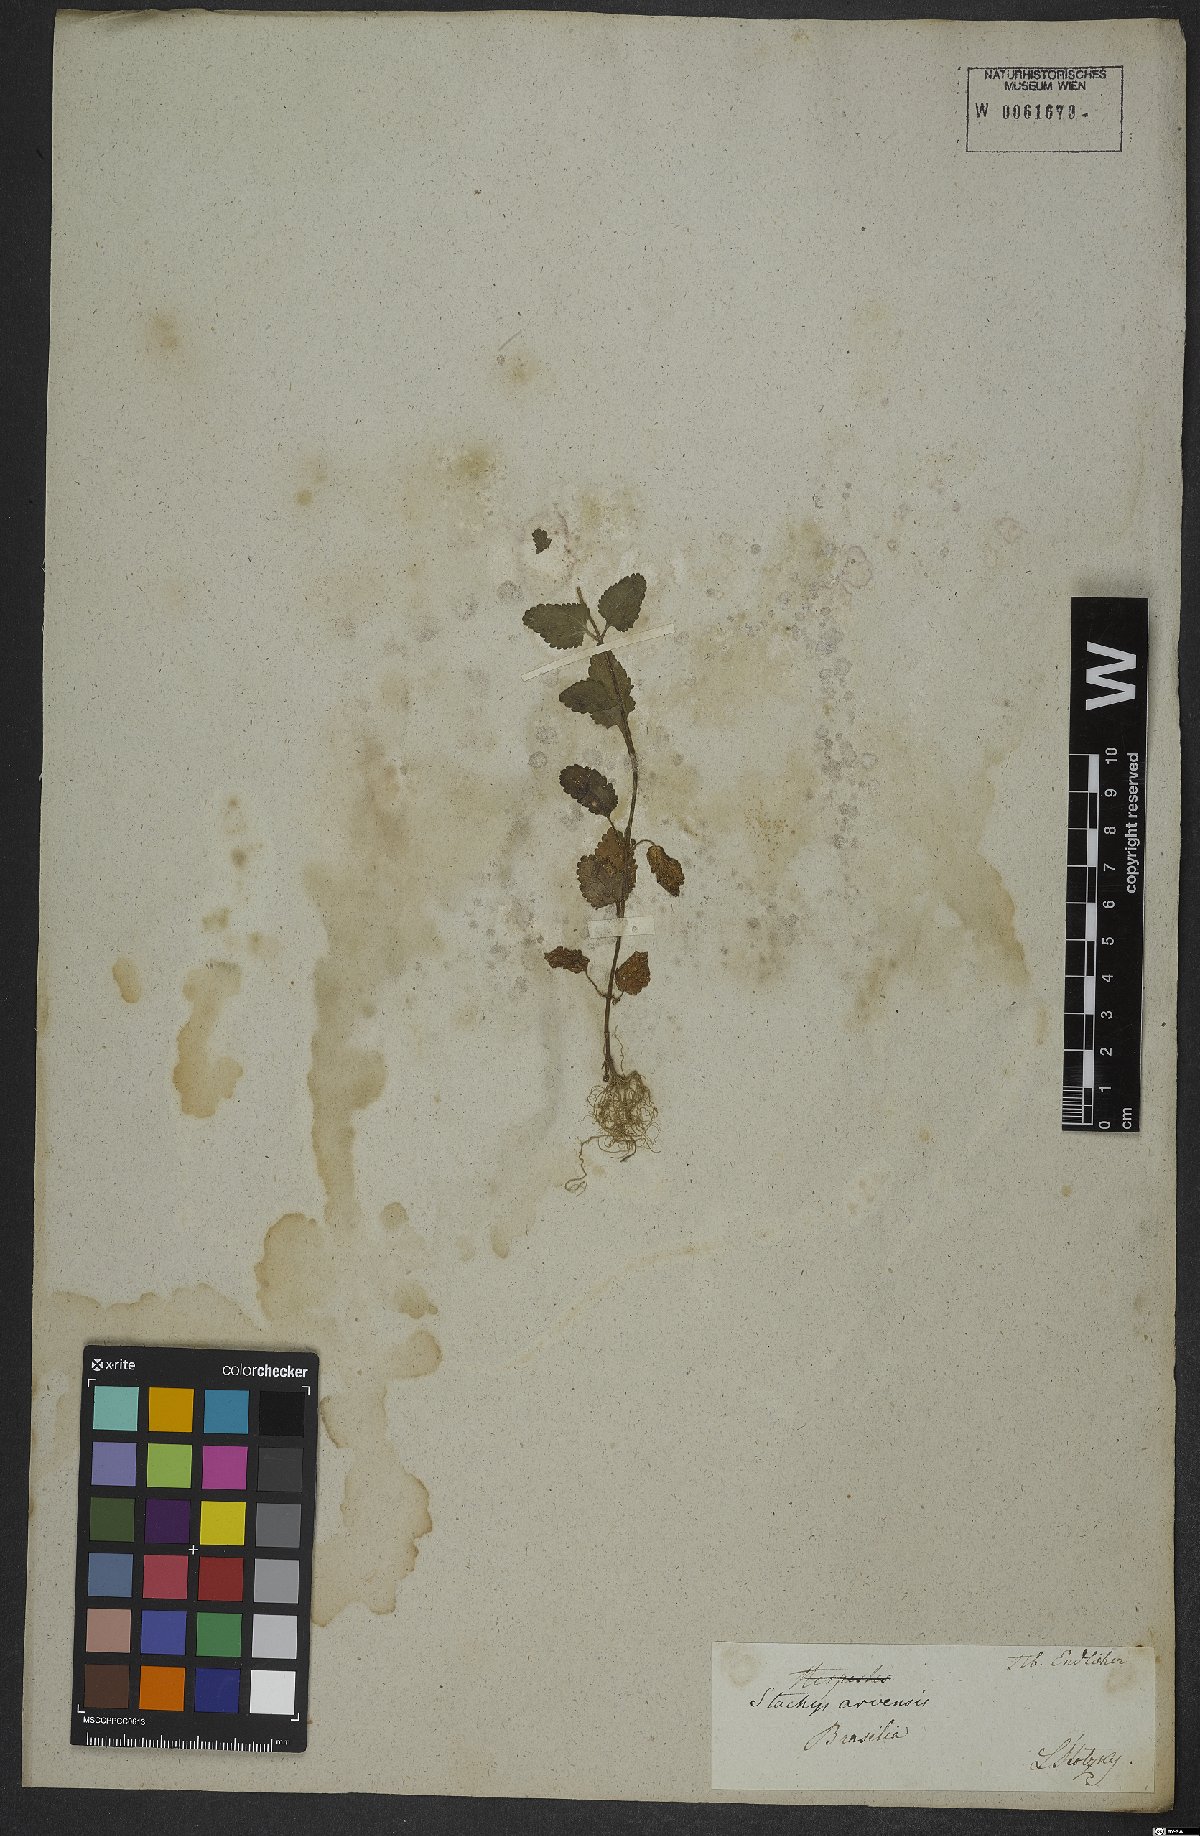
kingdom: Plantae
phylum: Tracheophyta
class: Magnoliopsida
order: Lamiales
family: Lamiaceae
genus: Stachys
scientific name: Stachys arvensis
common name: Field woundwort
